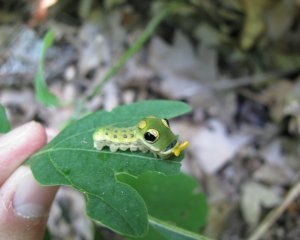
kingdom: Animalia
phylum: Arthropoda
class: Insecta
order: Lepidoptera
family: Papilionidae
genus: Pterourus
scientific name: Pterourus troilus
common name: Spicebush Swallowtail
